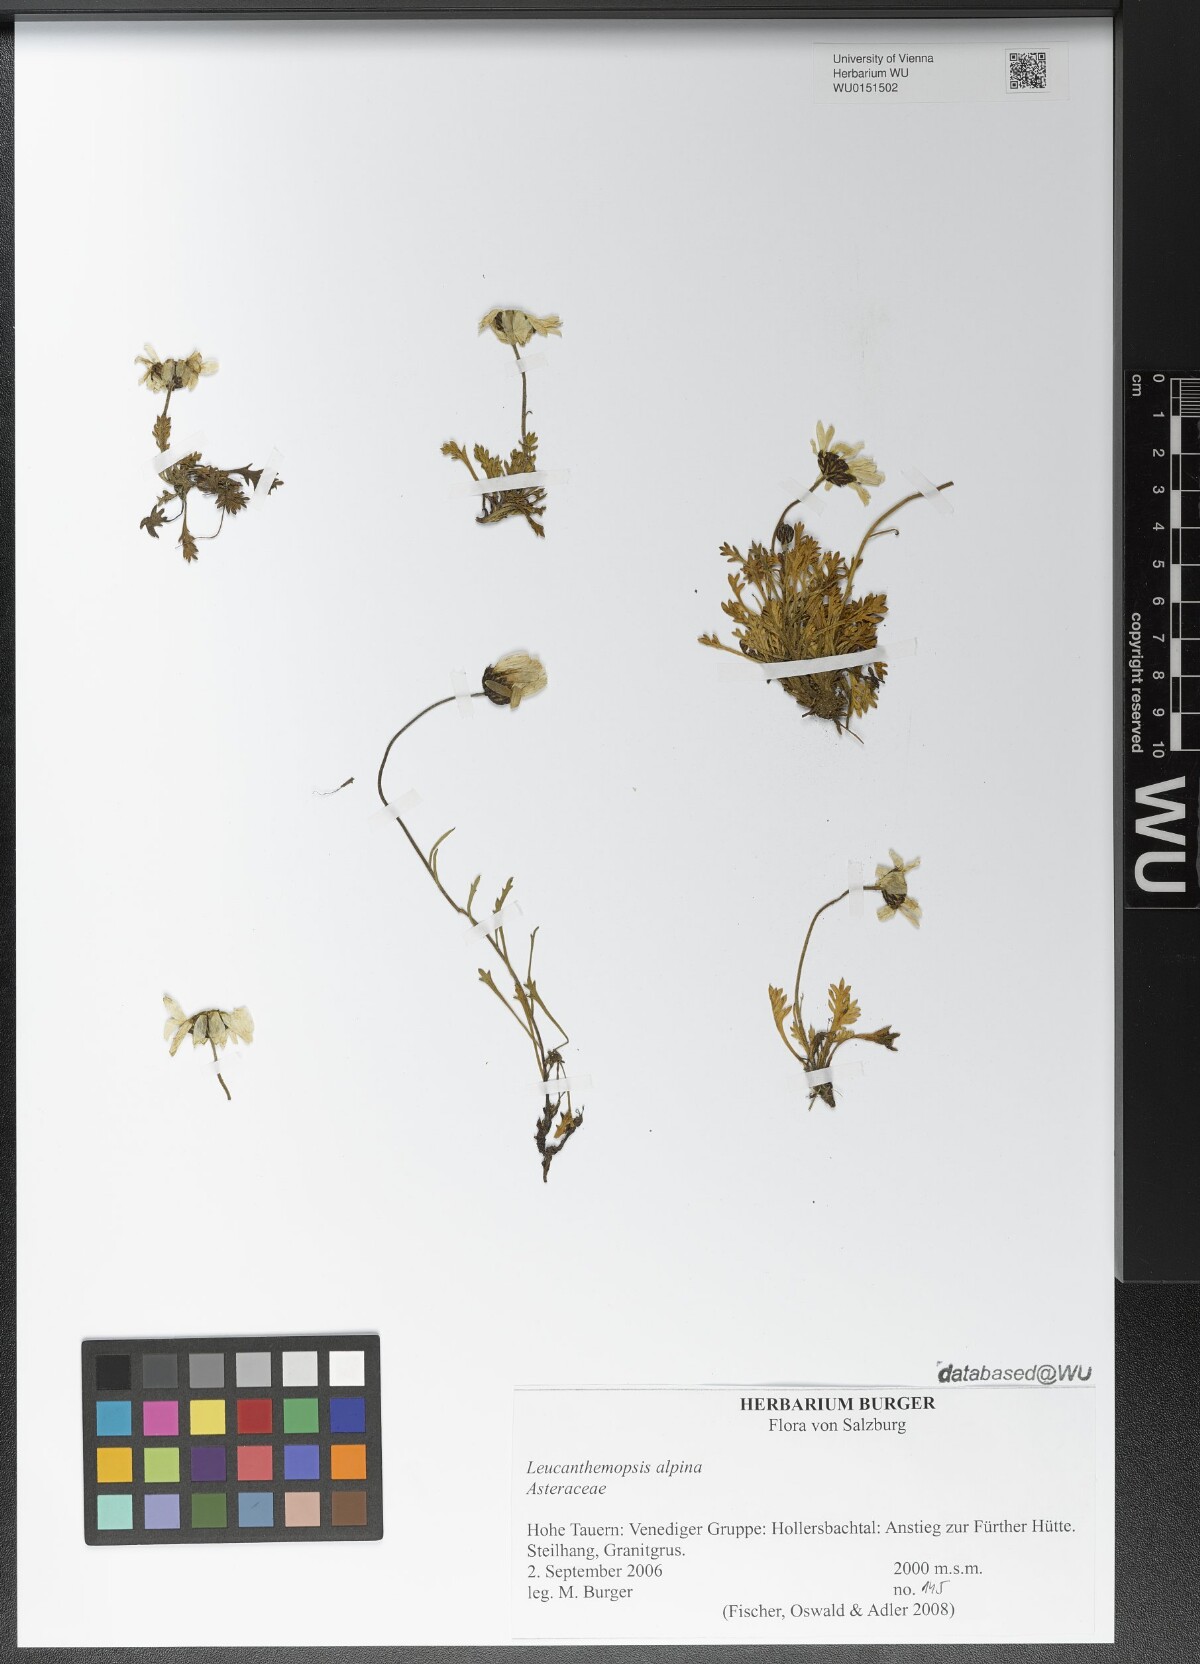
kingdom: Plantae
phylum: Tracheophyta
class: Magnoliopsida
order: Asterales
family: Asteraceae
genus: Leucanthemopsis
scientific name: Leucanthemopsis alpina
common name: Alpine moon daisy
